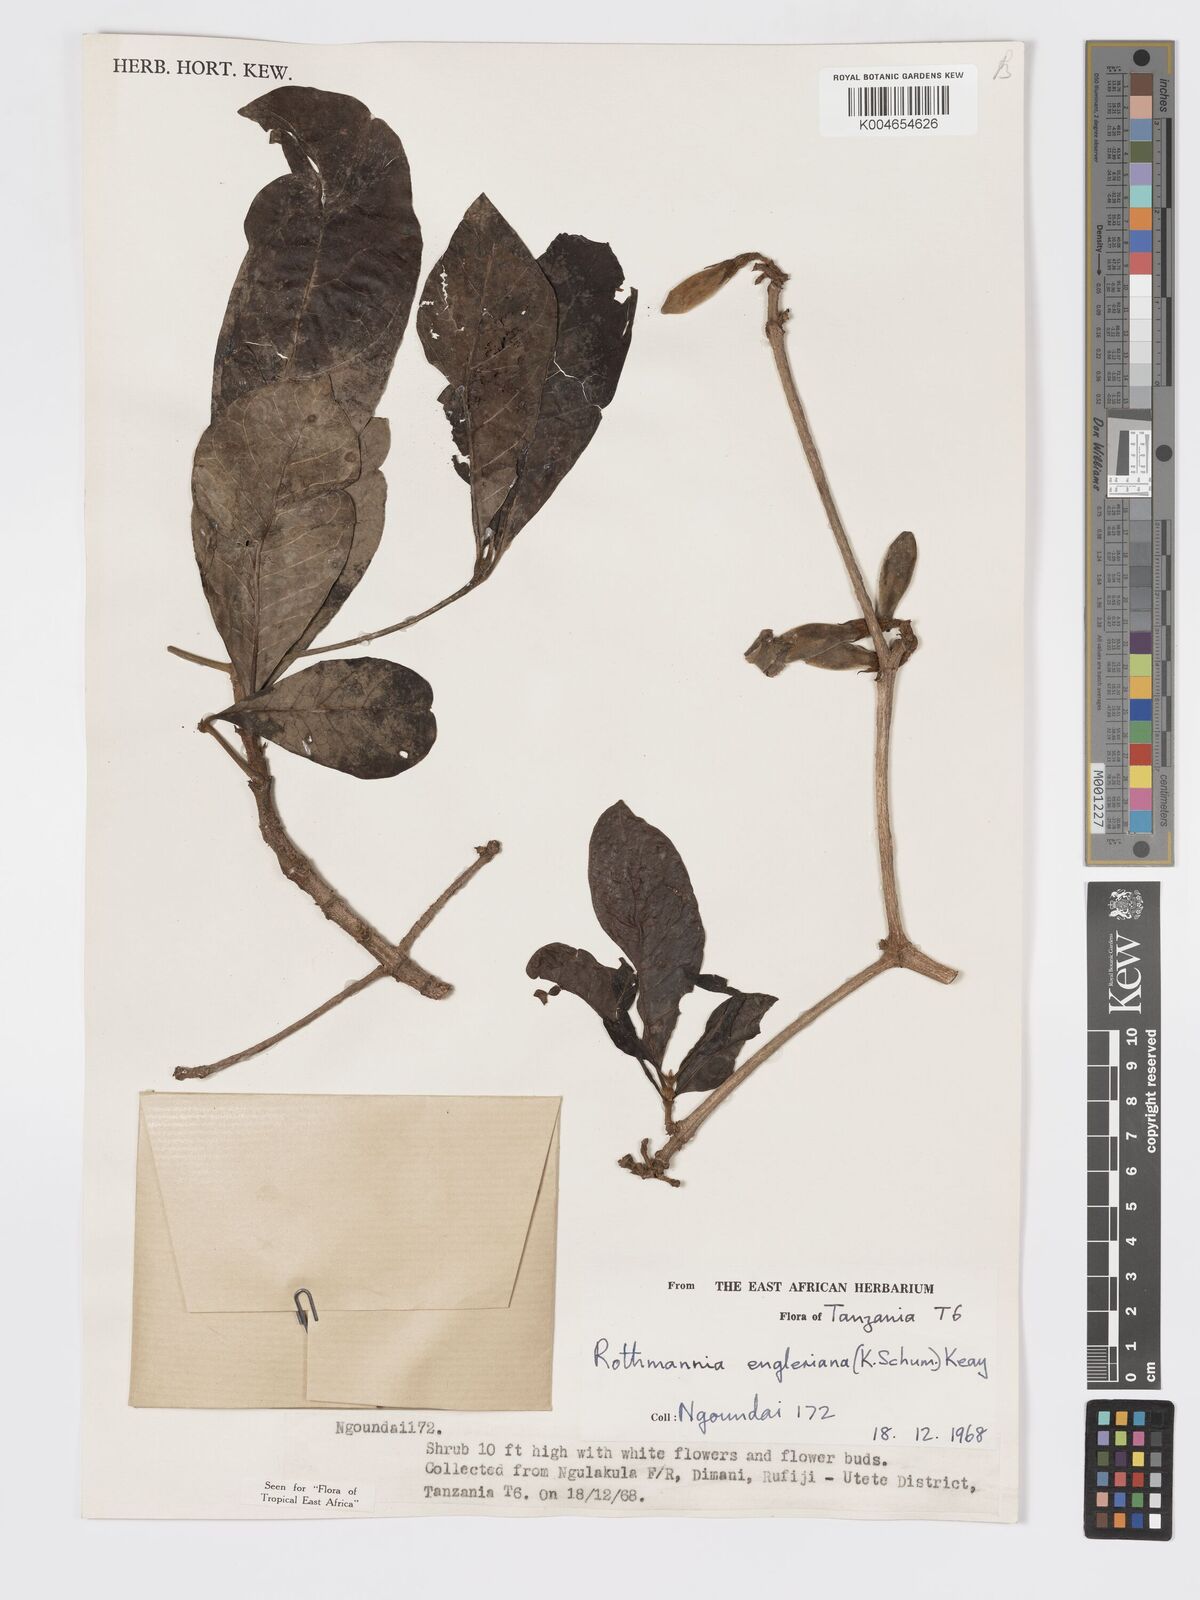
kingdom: Plantae
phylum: Tracheophyta
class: Magnoliopsida
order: Gentianales
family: Rubiaceae
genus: Rothmannia
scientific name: Rothmannia engleriana
